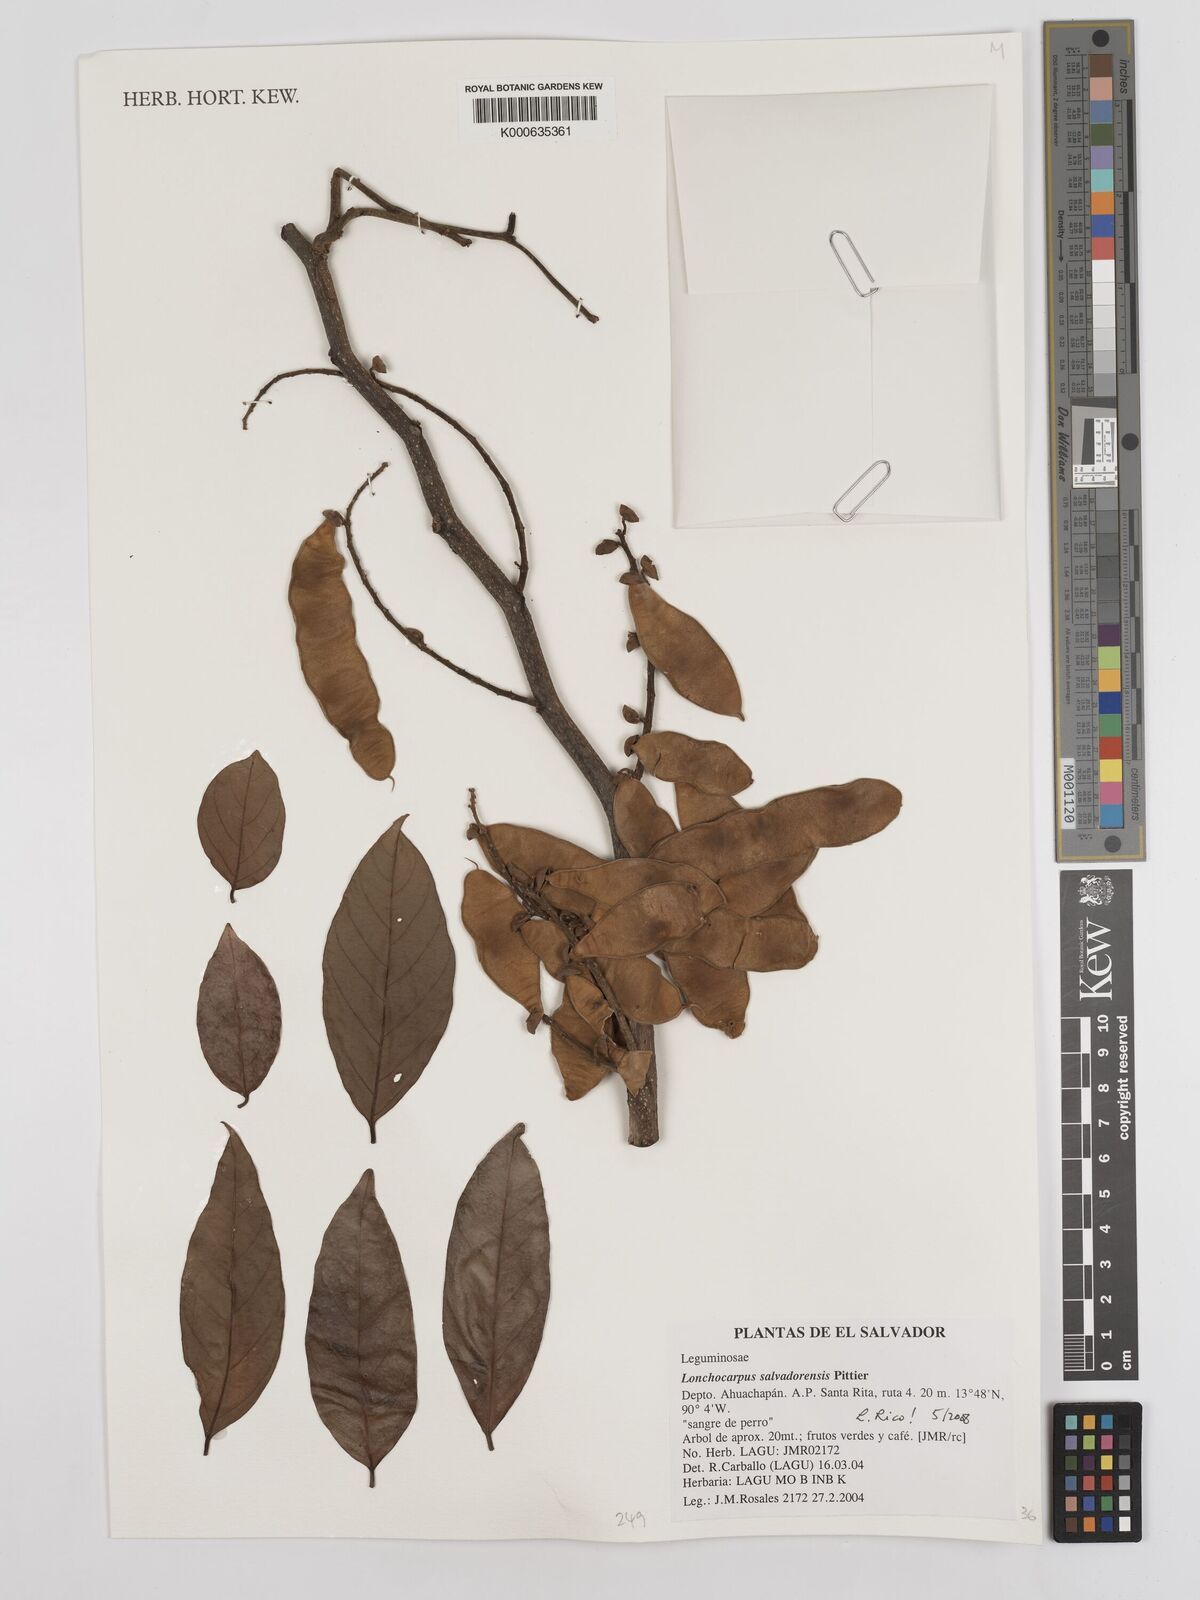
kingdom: Plantae
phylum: Tracheophyta
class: Magnoliopsida
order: Fabales
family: Fabaceae
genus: Lonchocarpus
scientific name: Lonchocarpus salvadorensis
